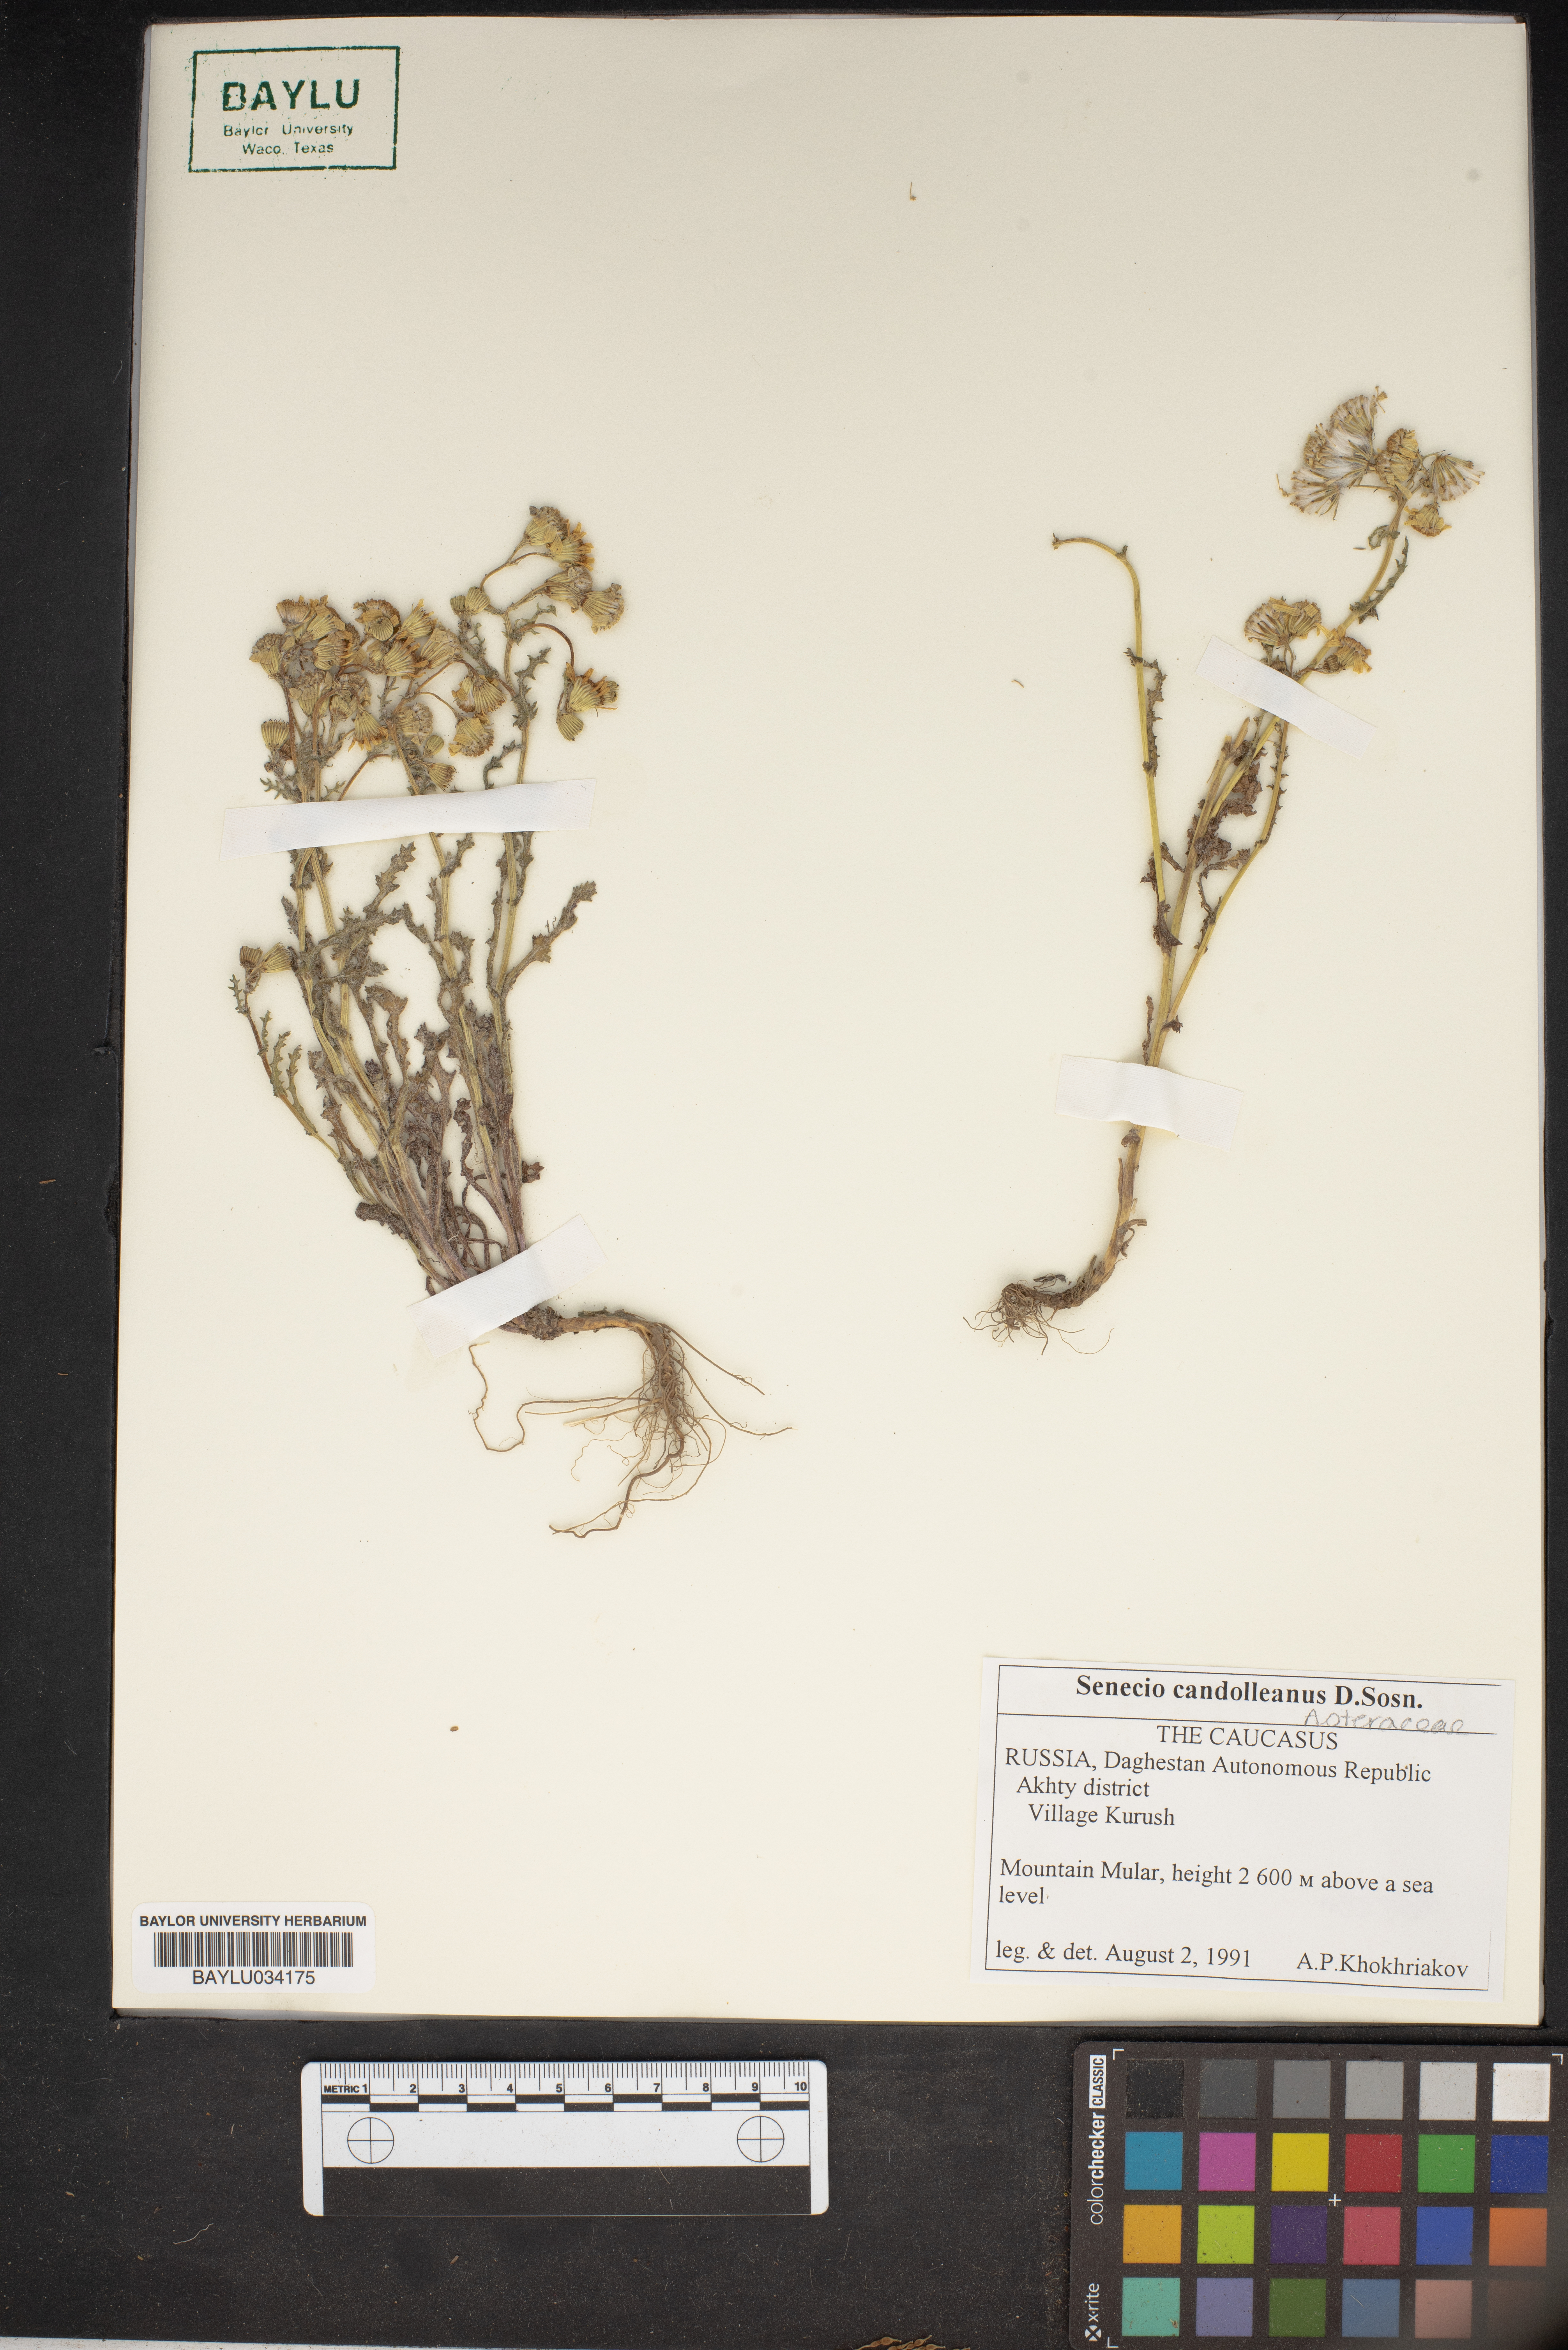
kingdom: Plantae
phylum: Tracheophyta
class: Magnoliopsida
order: Asterales
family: Asteraceae
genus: Senecio
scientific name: Senecio candolleanus
